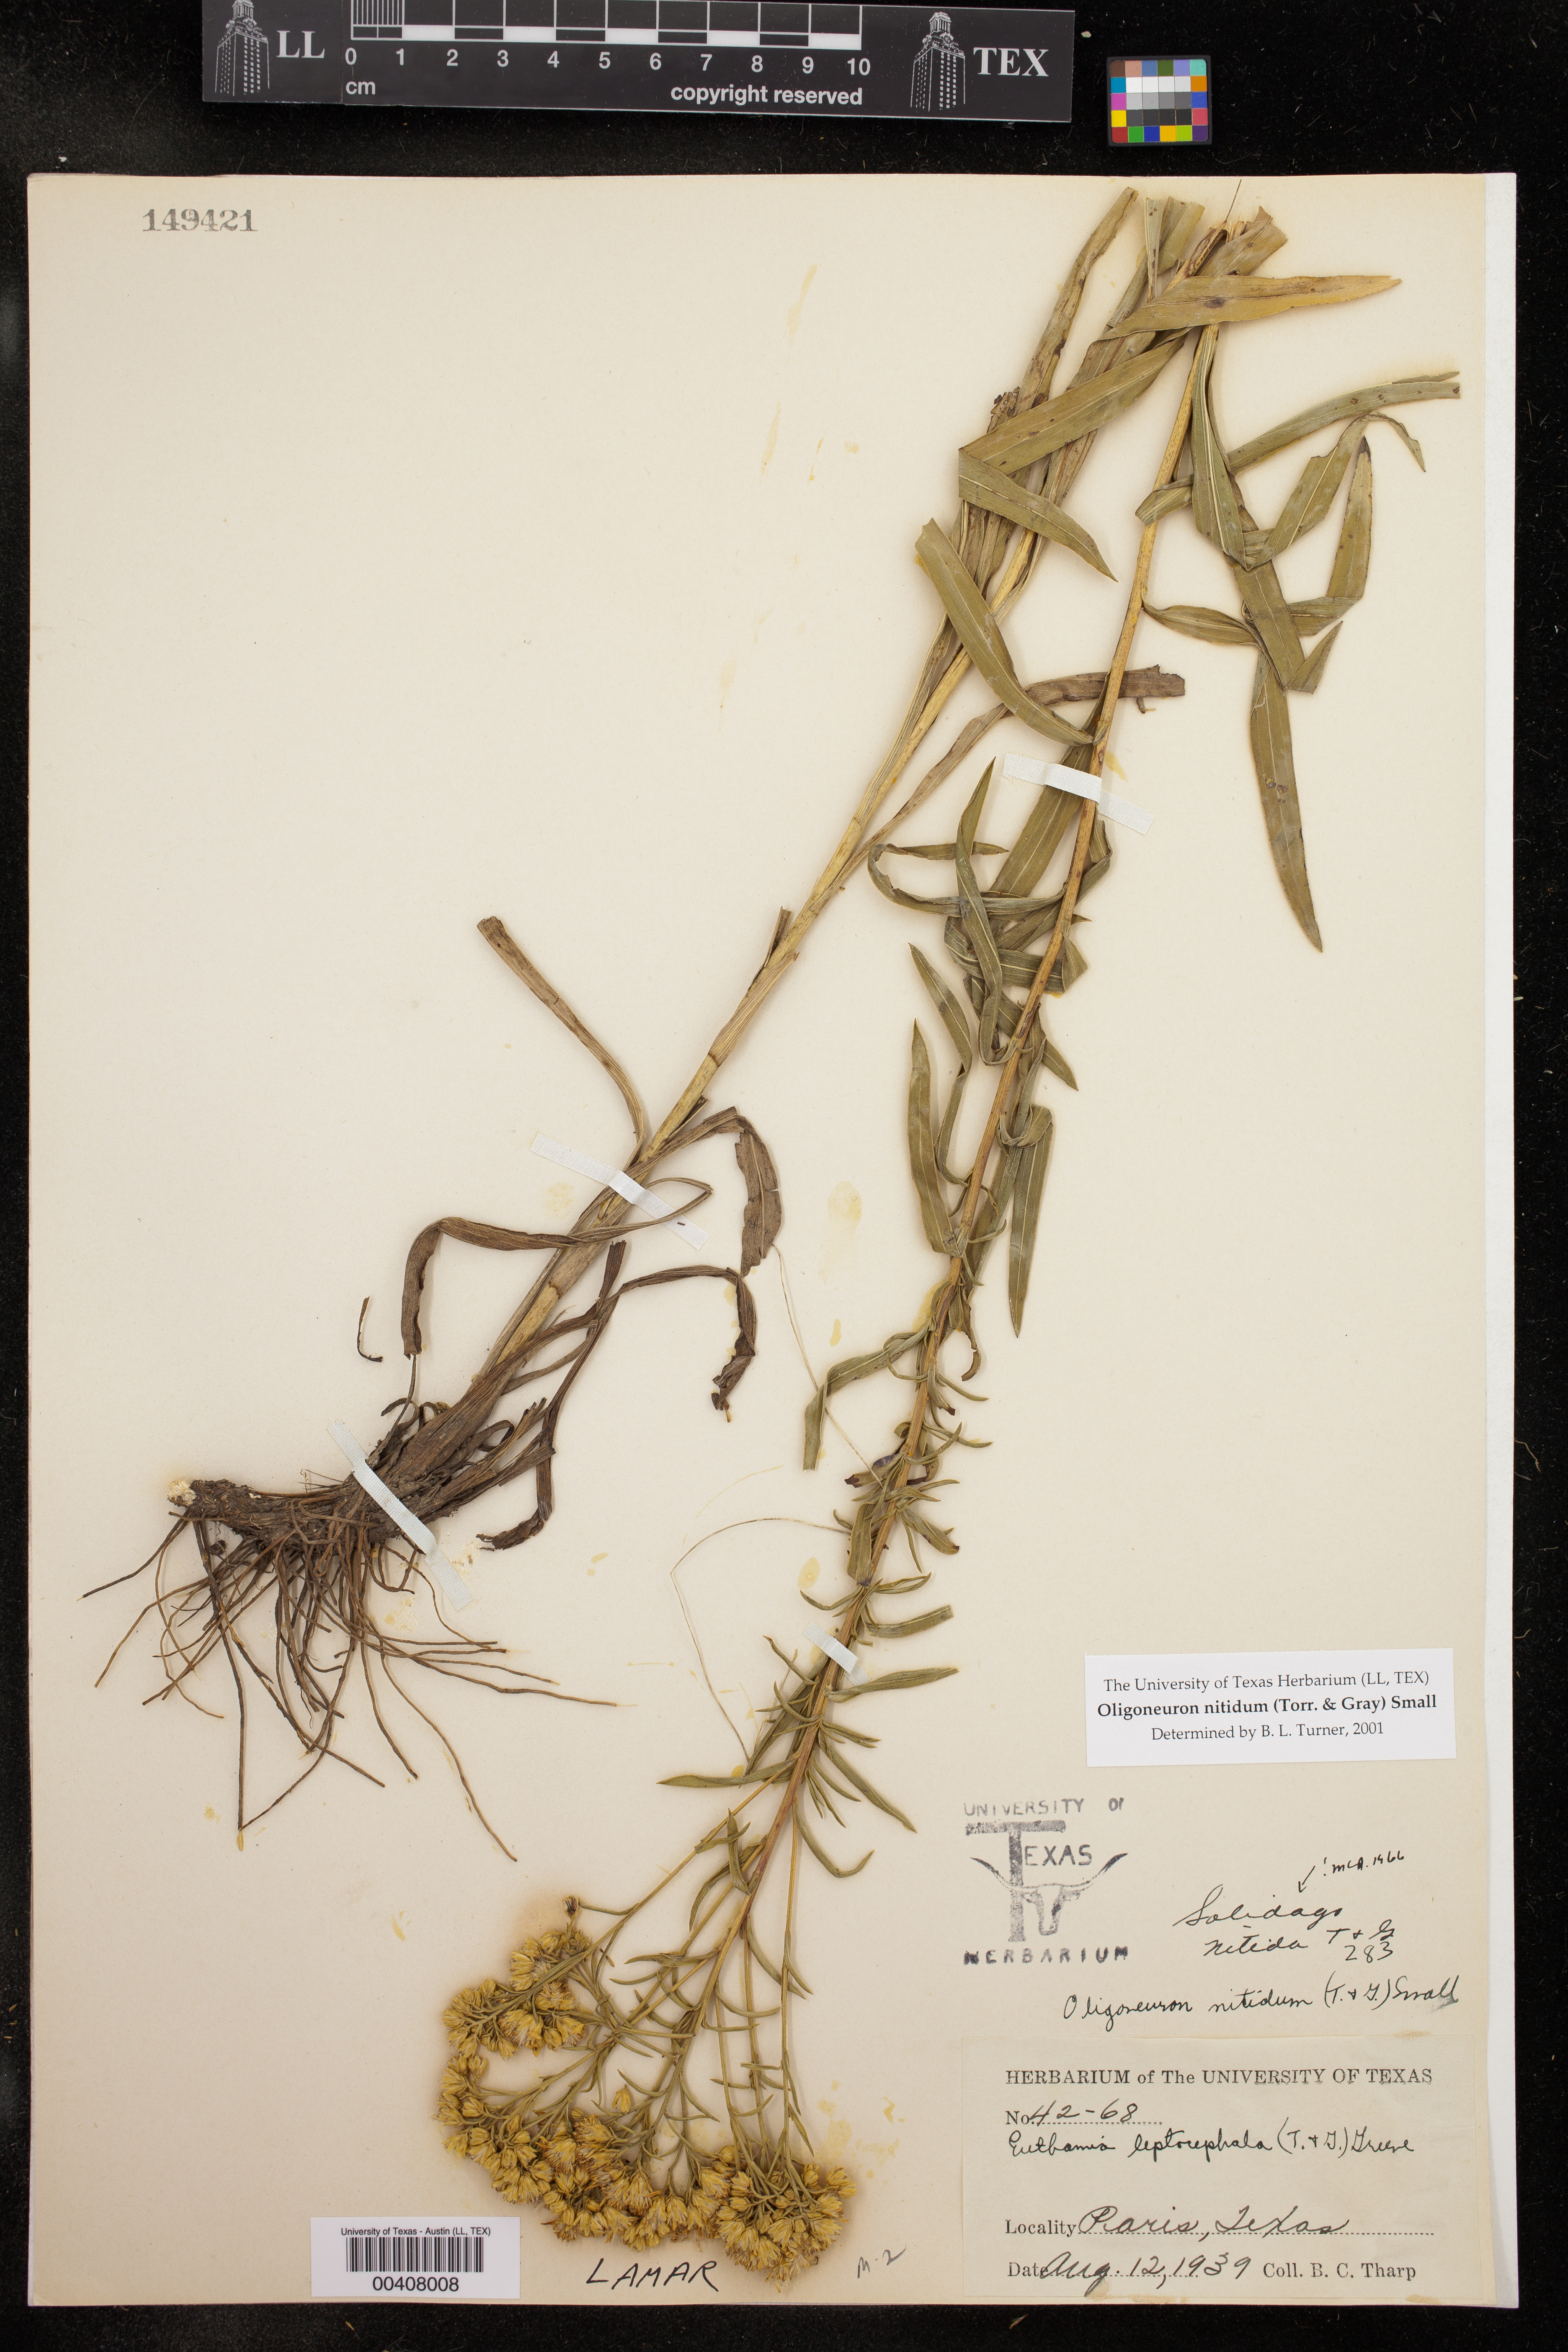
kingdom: Plantae
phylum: Tracheophyta
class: Magnoliopsida
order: Asterales
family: Asteraceae
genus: Solidago
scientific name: Solidago nitida
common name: Shiny goldenrod
